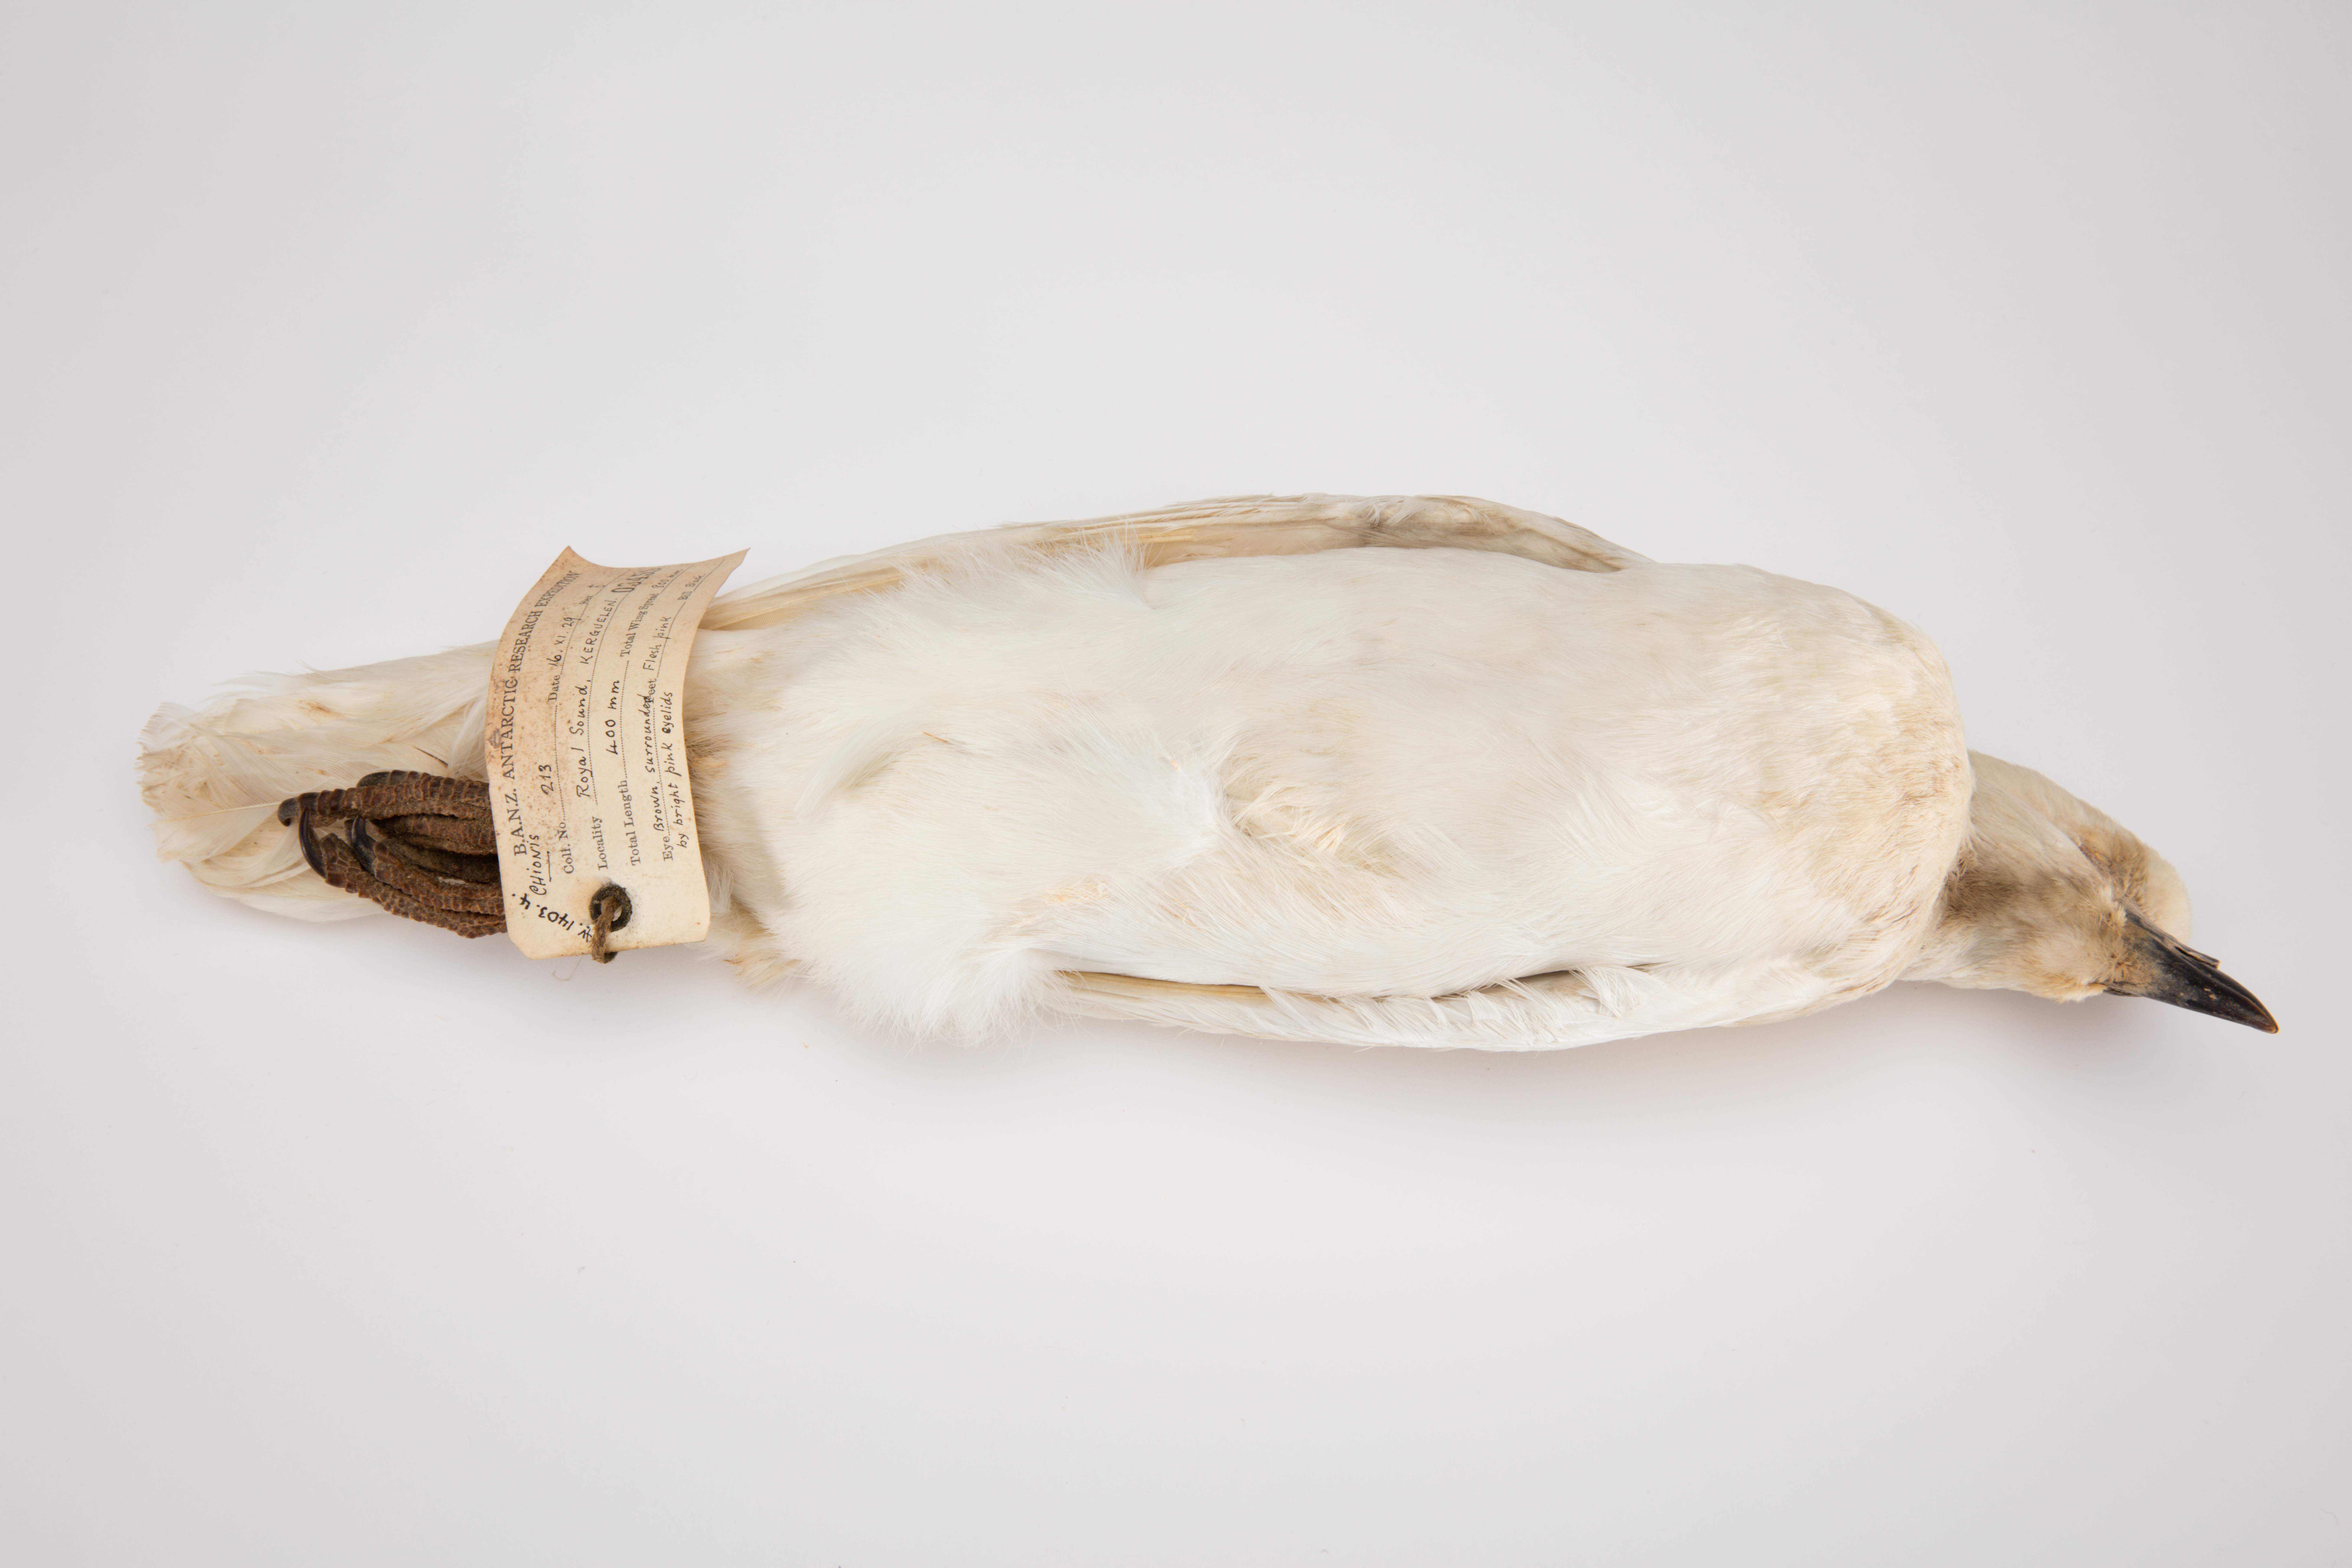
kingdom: Animalia
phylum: Chordata
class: Aves
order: Charadriiformes
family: Chionidae
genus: Chionis
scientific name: Chionis
